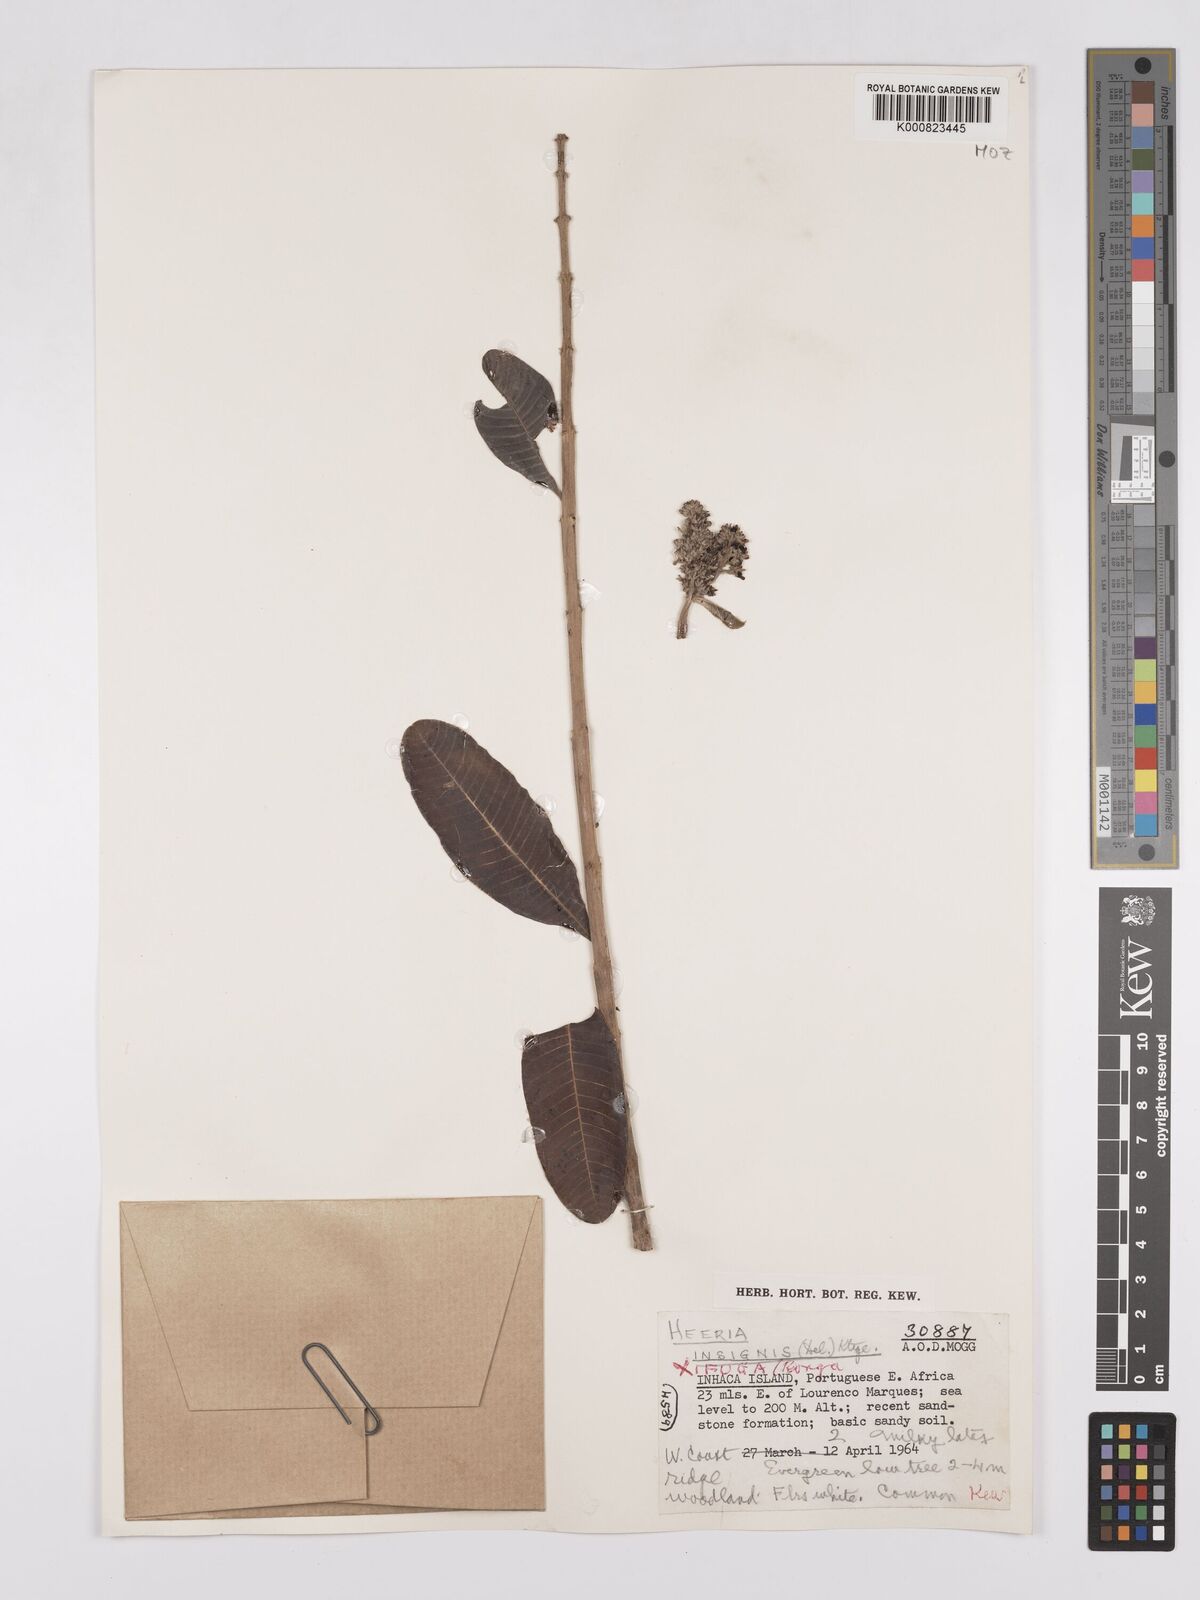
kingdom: Plantae
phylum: Tracheophyta
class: Magnoliopsida
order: Sapindales
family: Anacardiaceae
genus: Ozoroa
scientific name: Ozoroa obovata
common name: Broad-leaved resin tree
